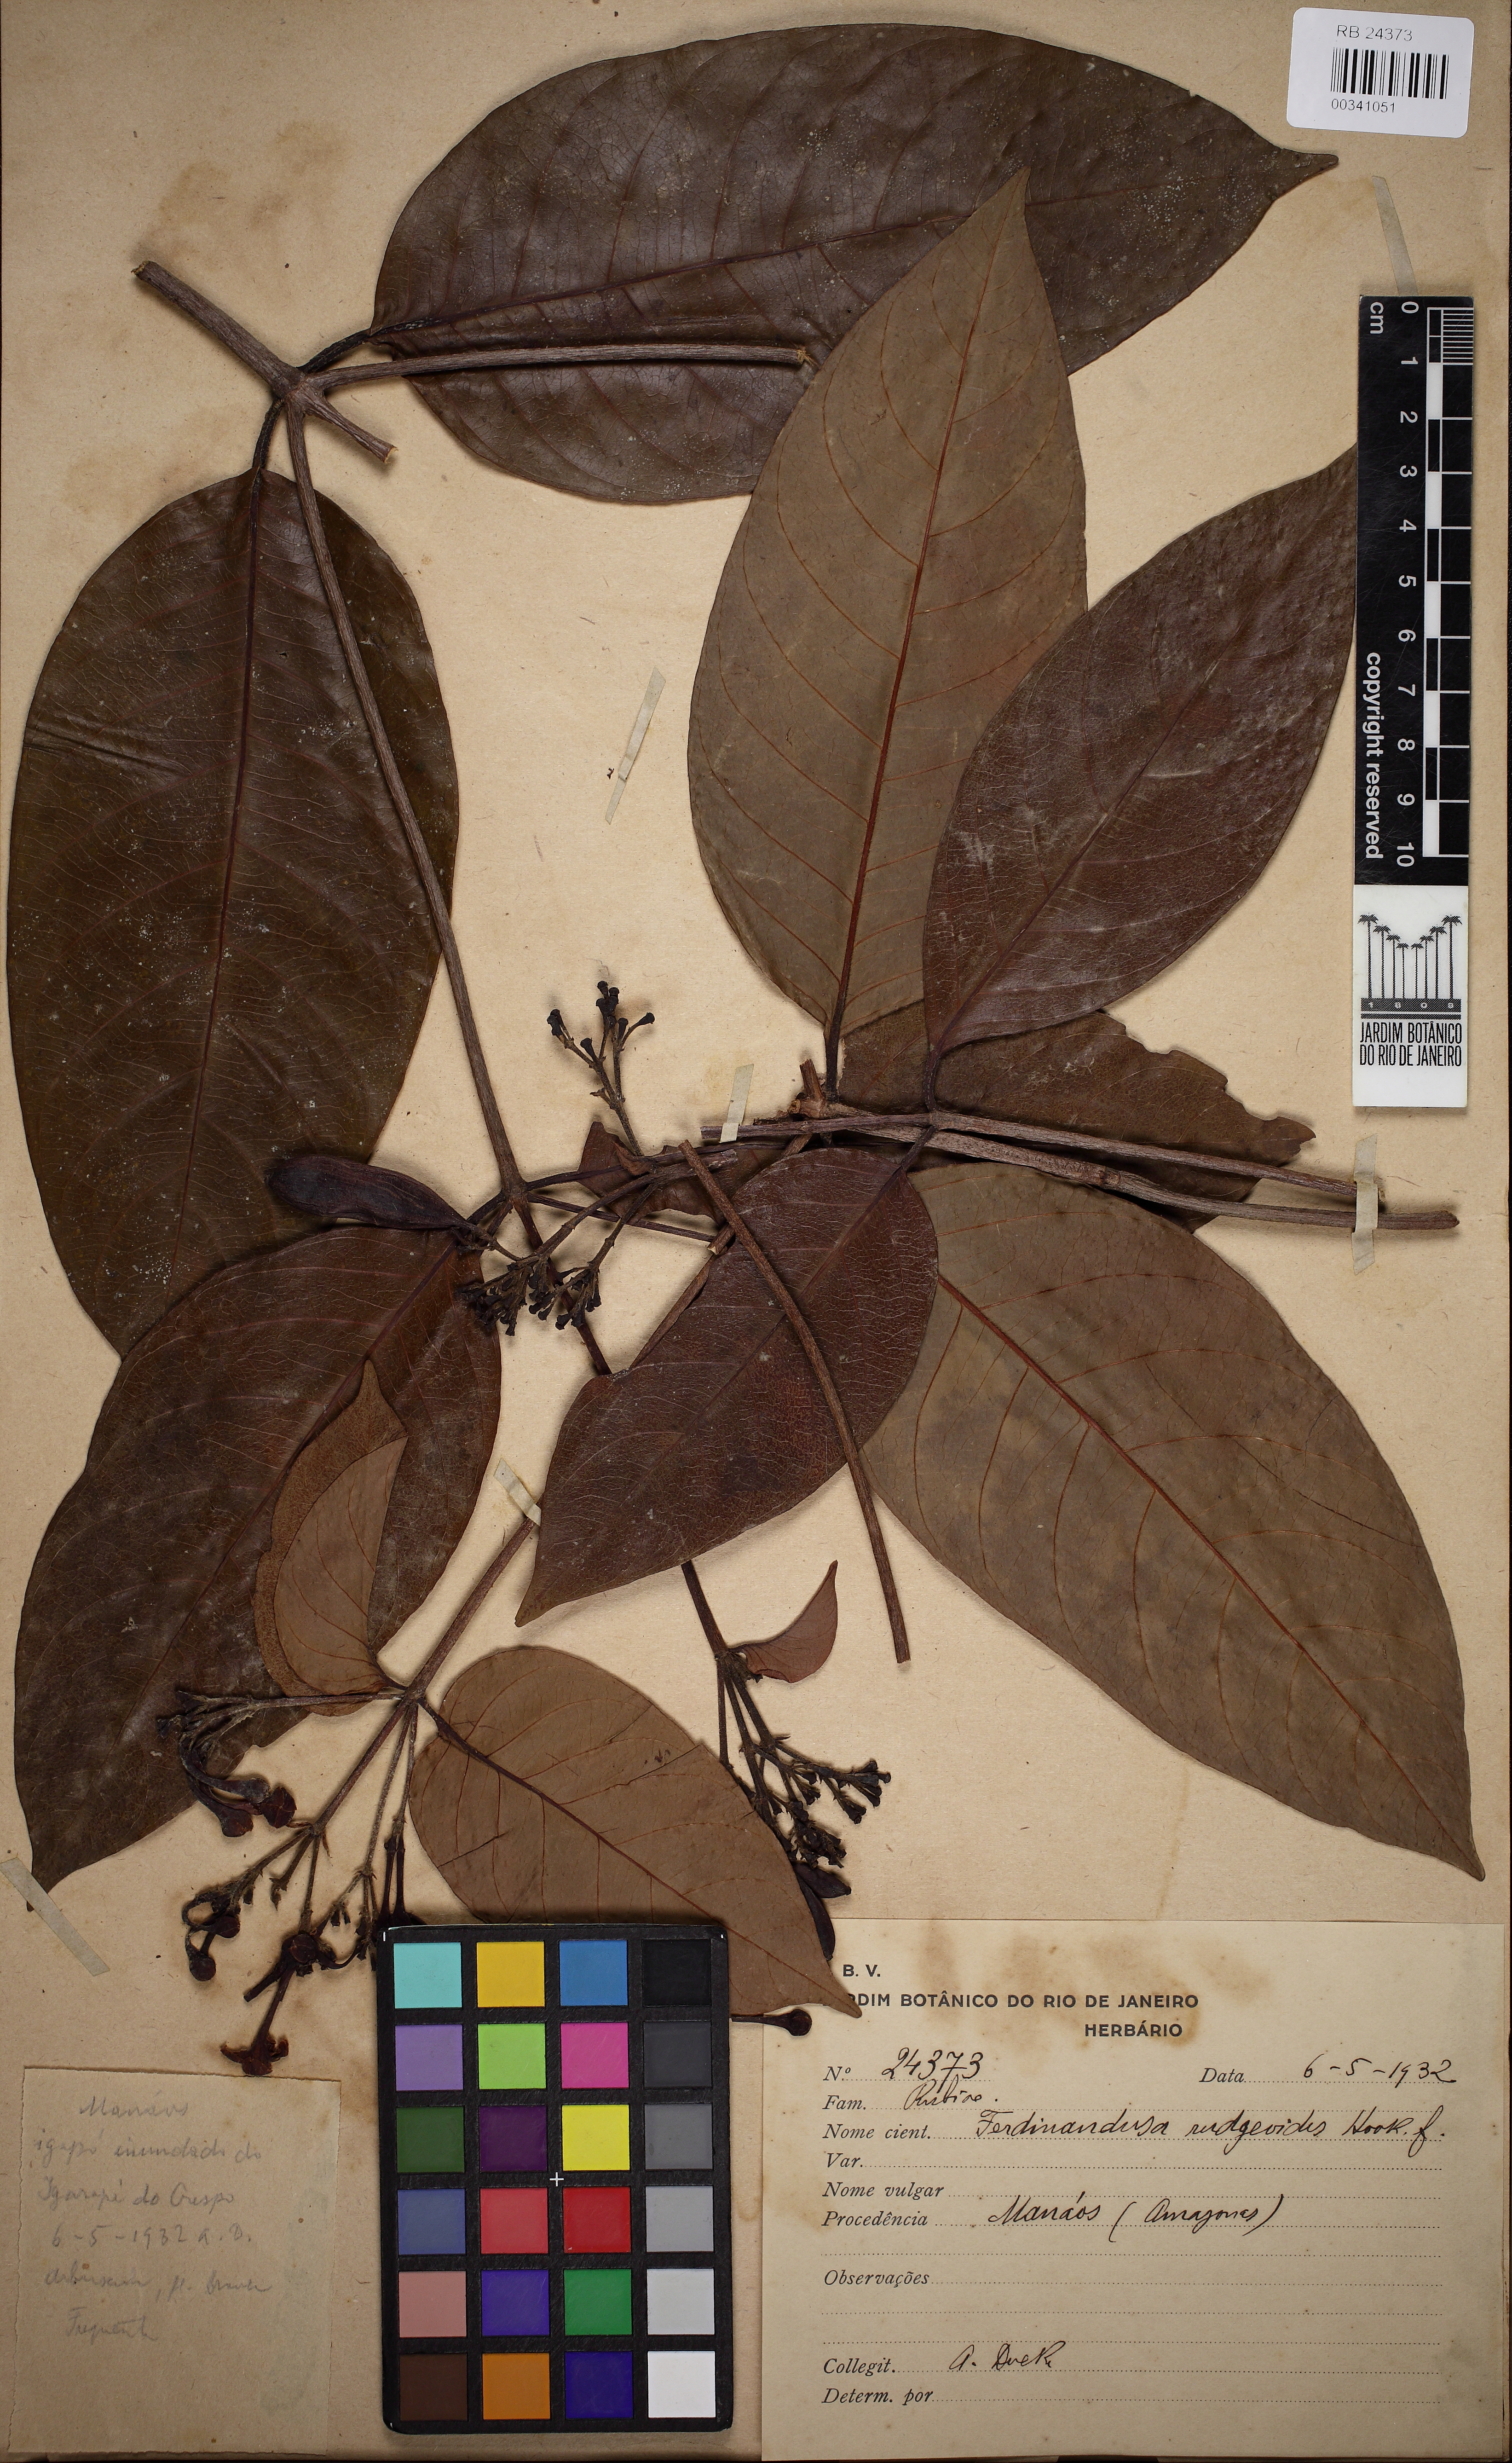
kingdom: Plantae
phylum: Tracheophyta
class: Magnoliopsida
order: Gentianales
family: Rubiaceae
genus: Ferdinandusa
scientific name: Ferdinandusa goudotiana
